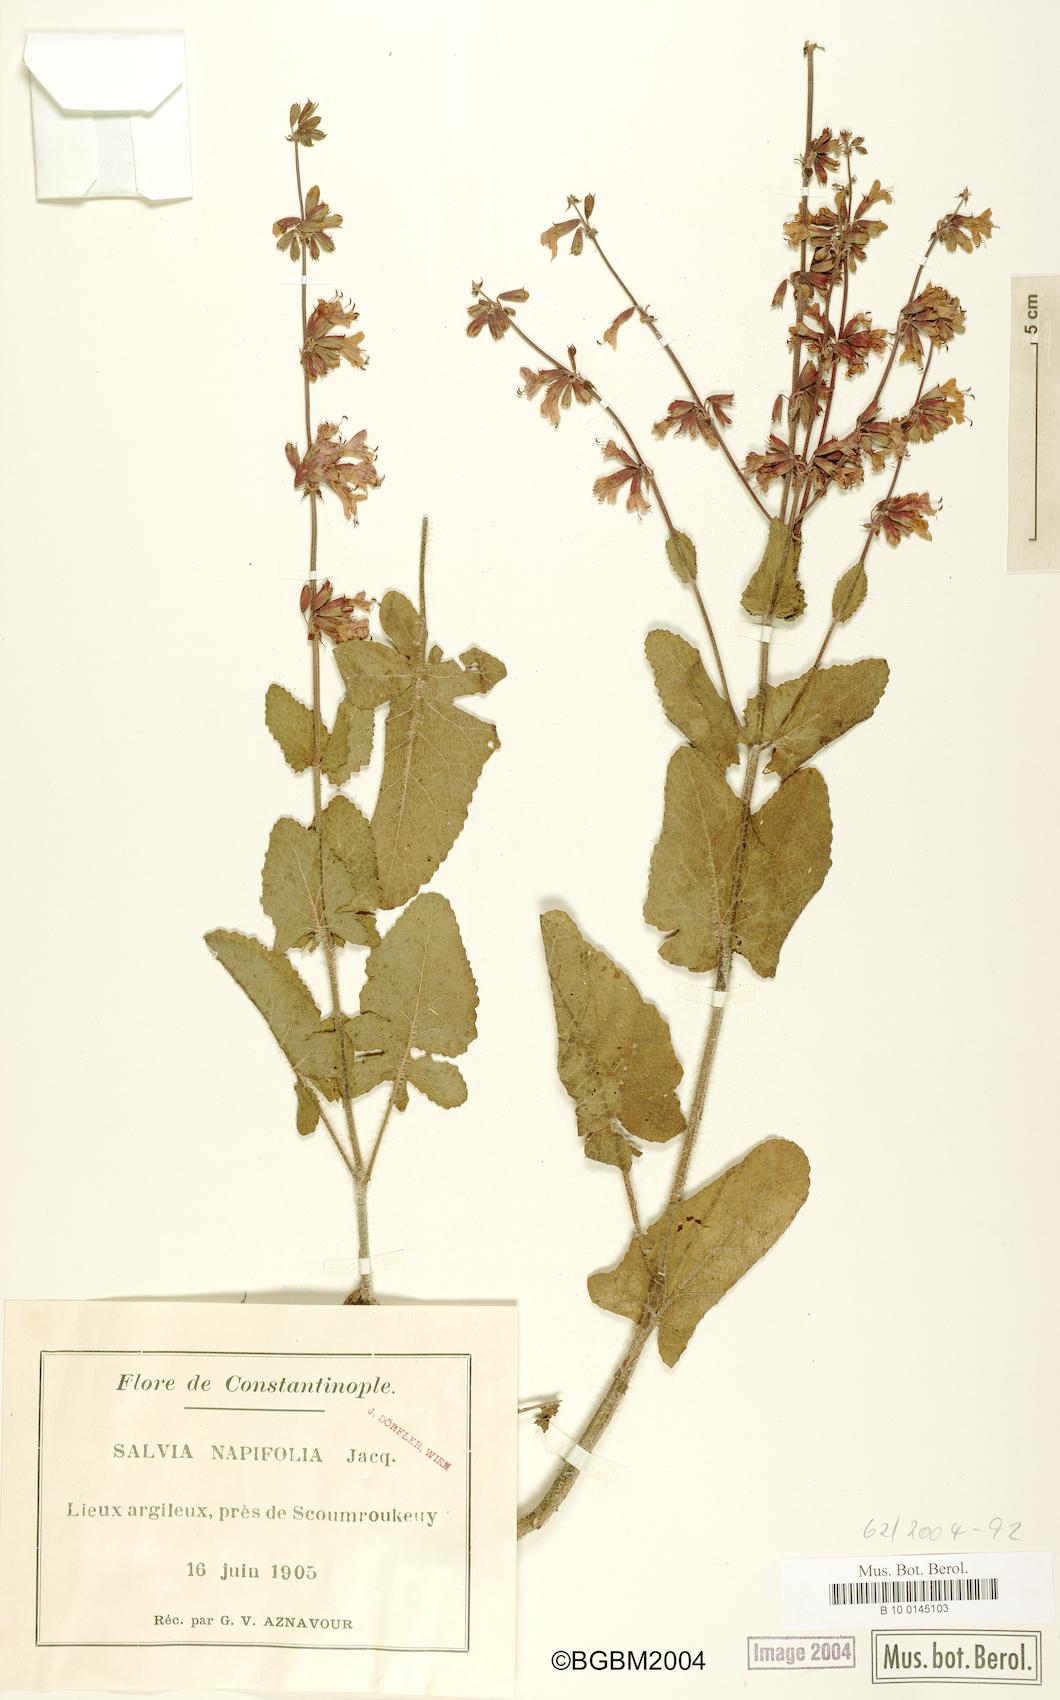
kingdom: Plantae
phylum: Tracheophyta
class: Magnoliopsida
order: Lamiales
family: Lamiaceae
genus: Salvia
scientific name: Salvia napifolia
